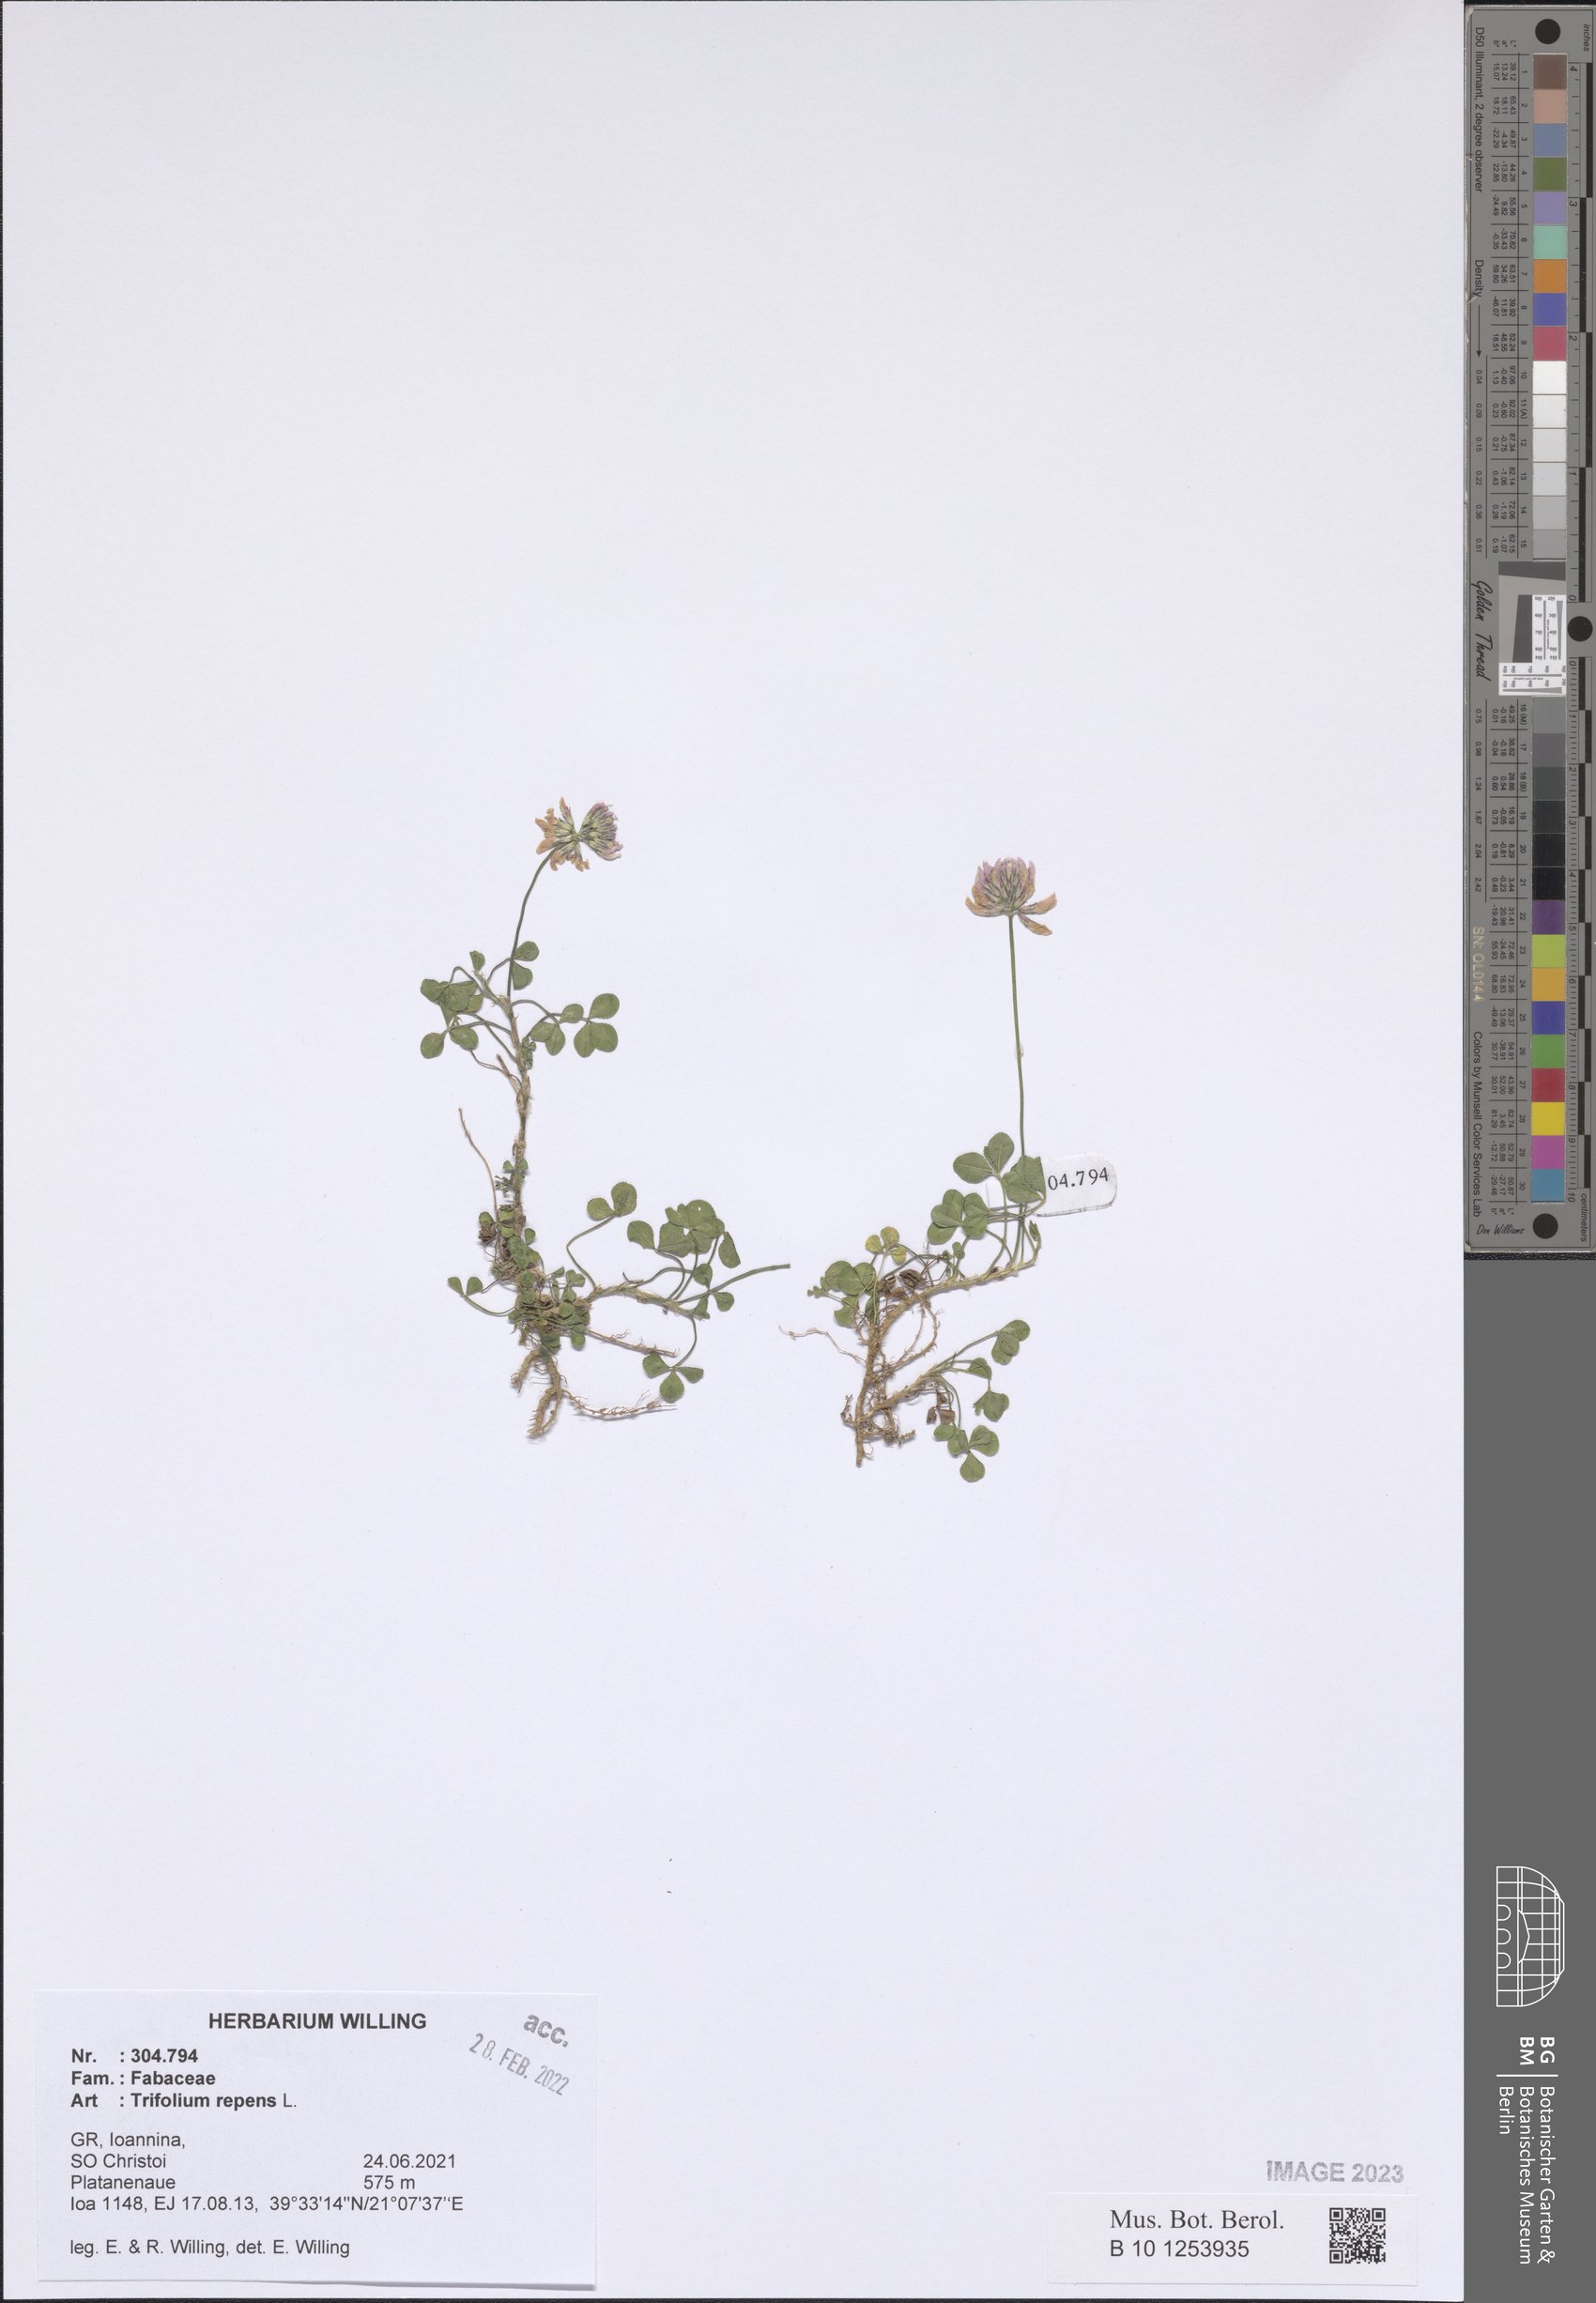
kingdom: Plantae
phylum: Tracheophyta
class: Magnoliopsida
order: Fabales
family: Fabaceae
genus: Trifolium
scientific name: Trifolium repens
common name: White clover
